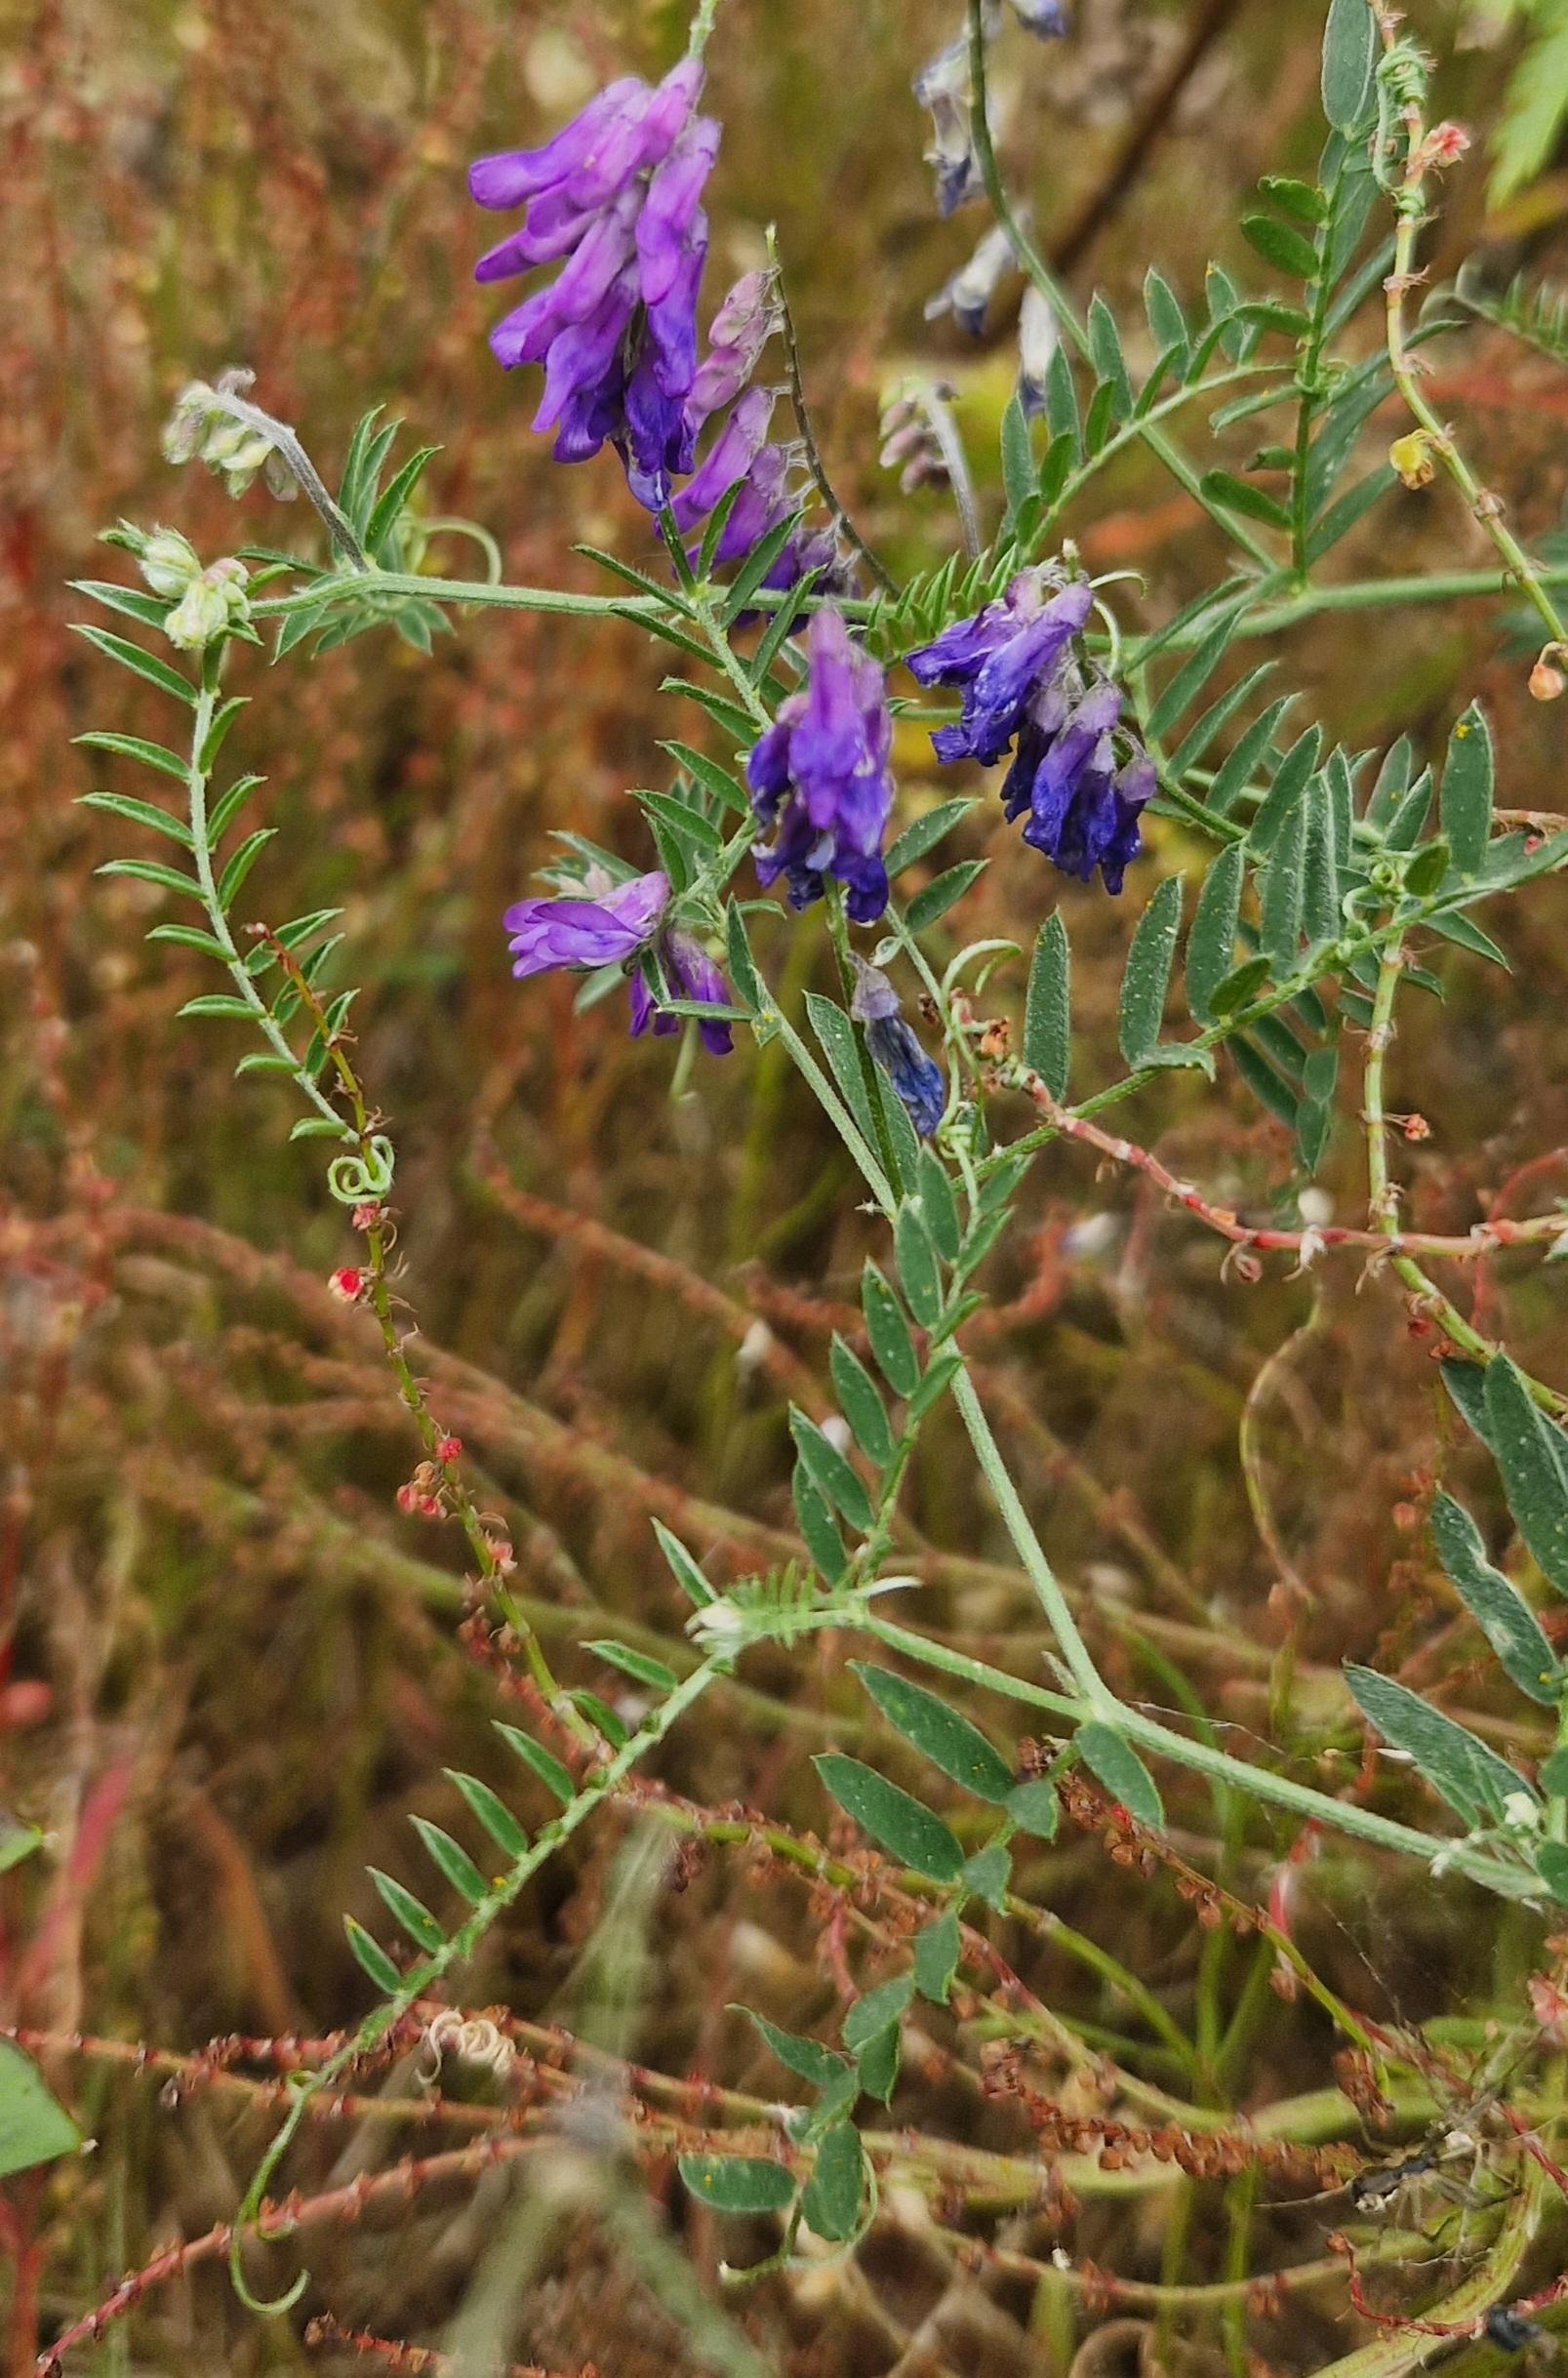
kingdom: Plantae
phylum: Tracheophyta
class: Magnoliopsida
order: Fabales
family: Fabaceae
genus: Vicia
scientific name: Vicia cracca
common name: Muse-vikke
